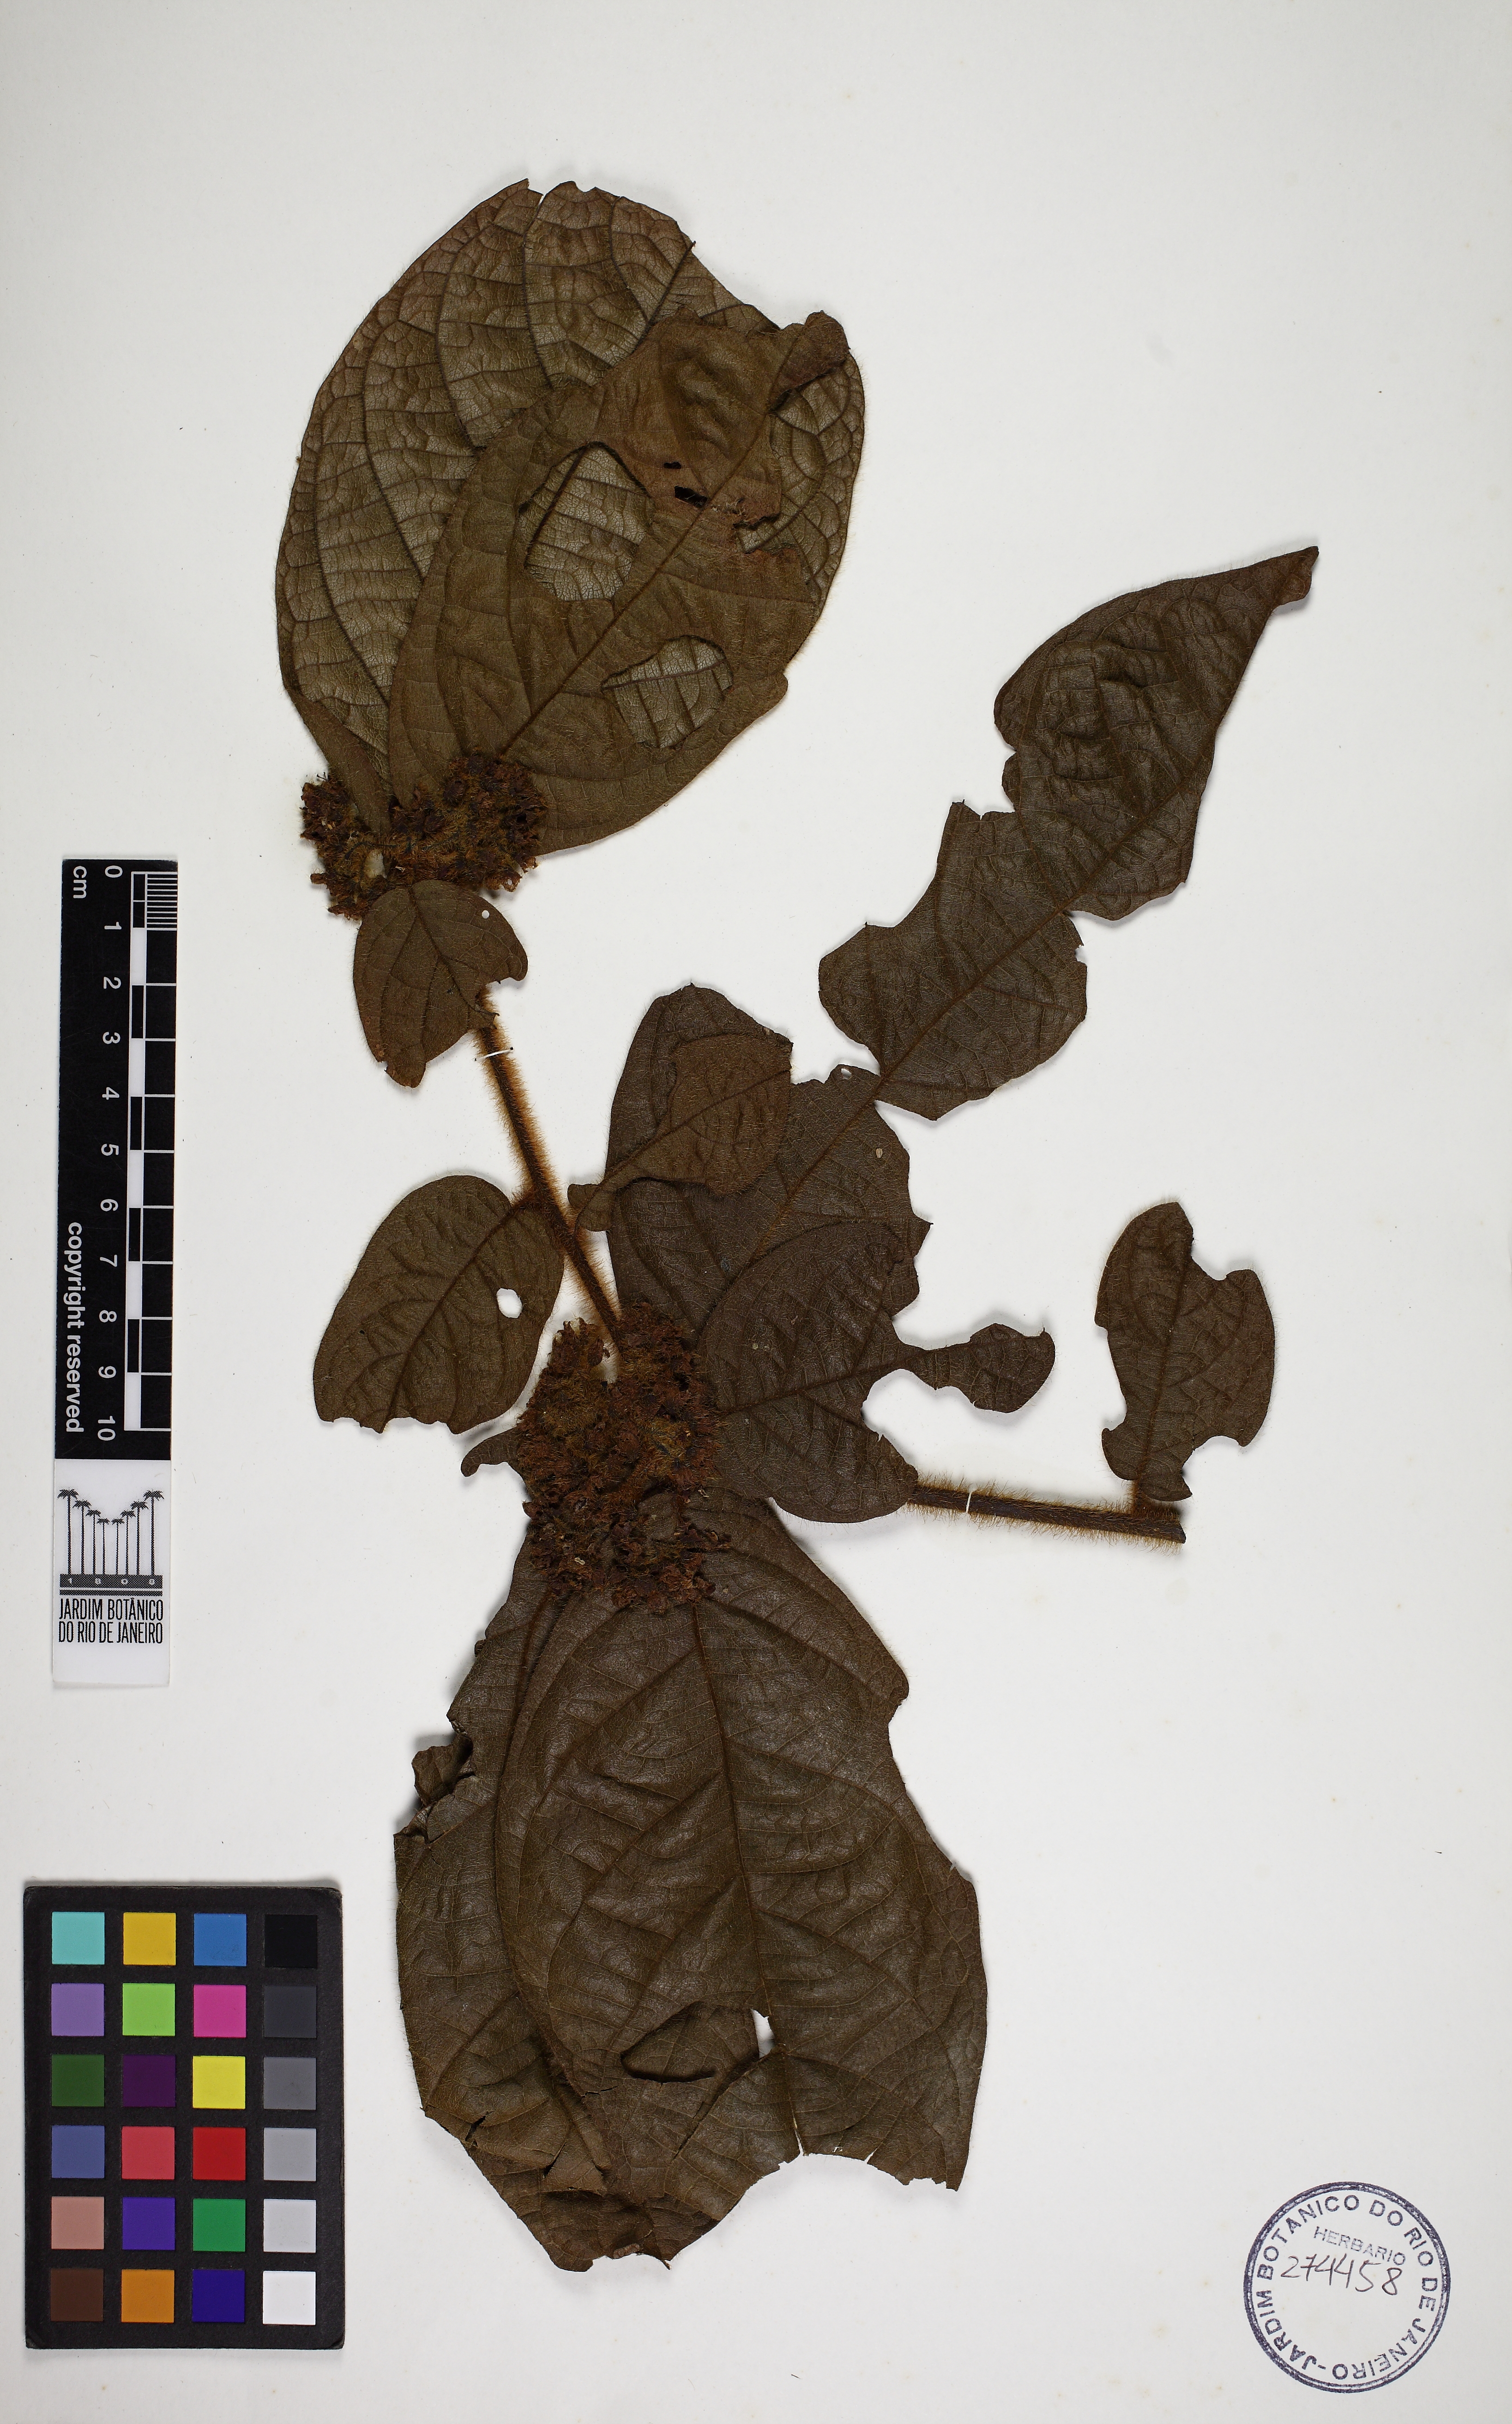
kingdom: Plantae
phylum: Tracheophyta
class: Magnoliopsida
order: Boraginales
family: Cordiaceae
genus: Cordia
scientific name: Cordia nodosa
